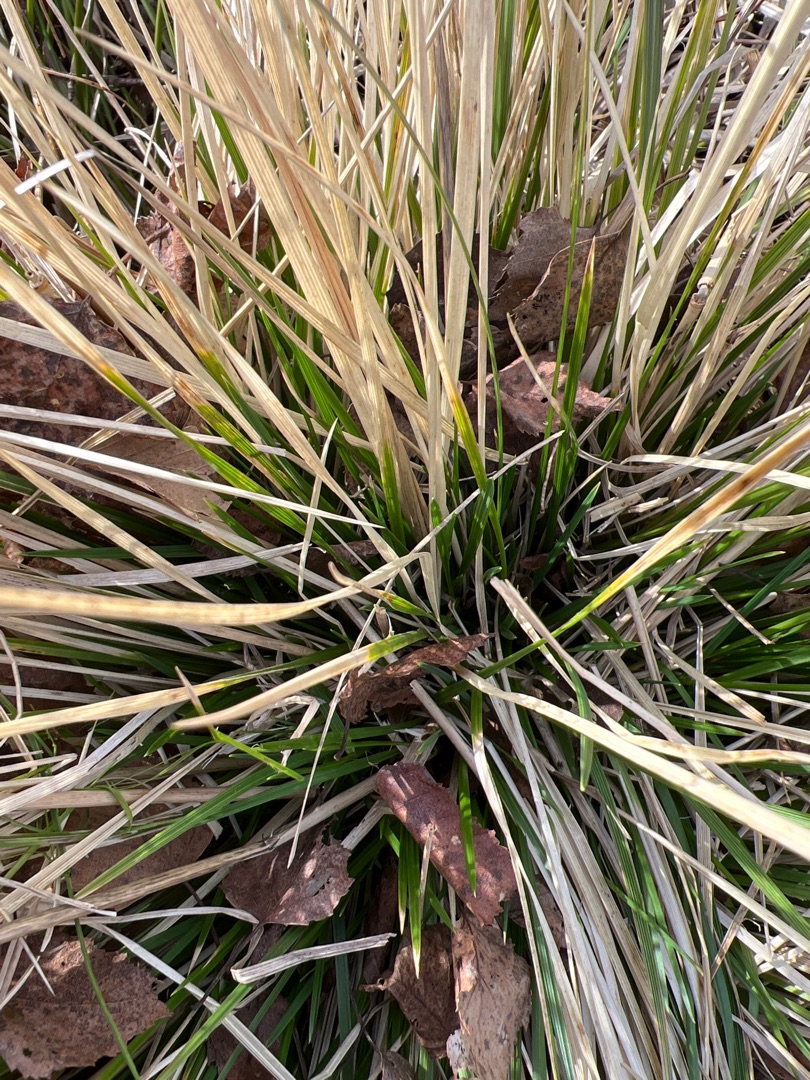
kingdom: Plantae
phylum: Tracheophyta
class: Liliopsida
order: Poales
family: Poaceae
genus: Deschampsia
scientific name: Deschampsia cespitosa
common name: Mose-bunke
